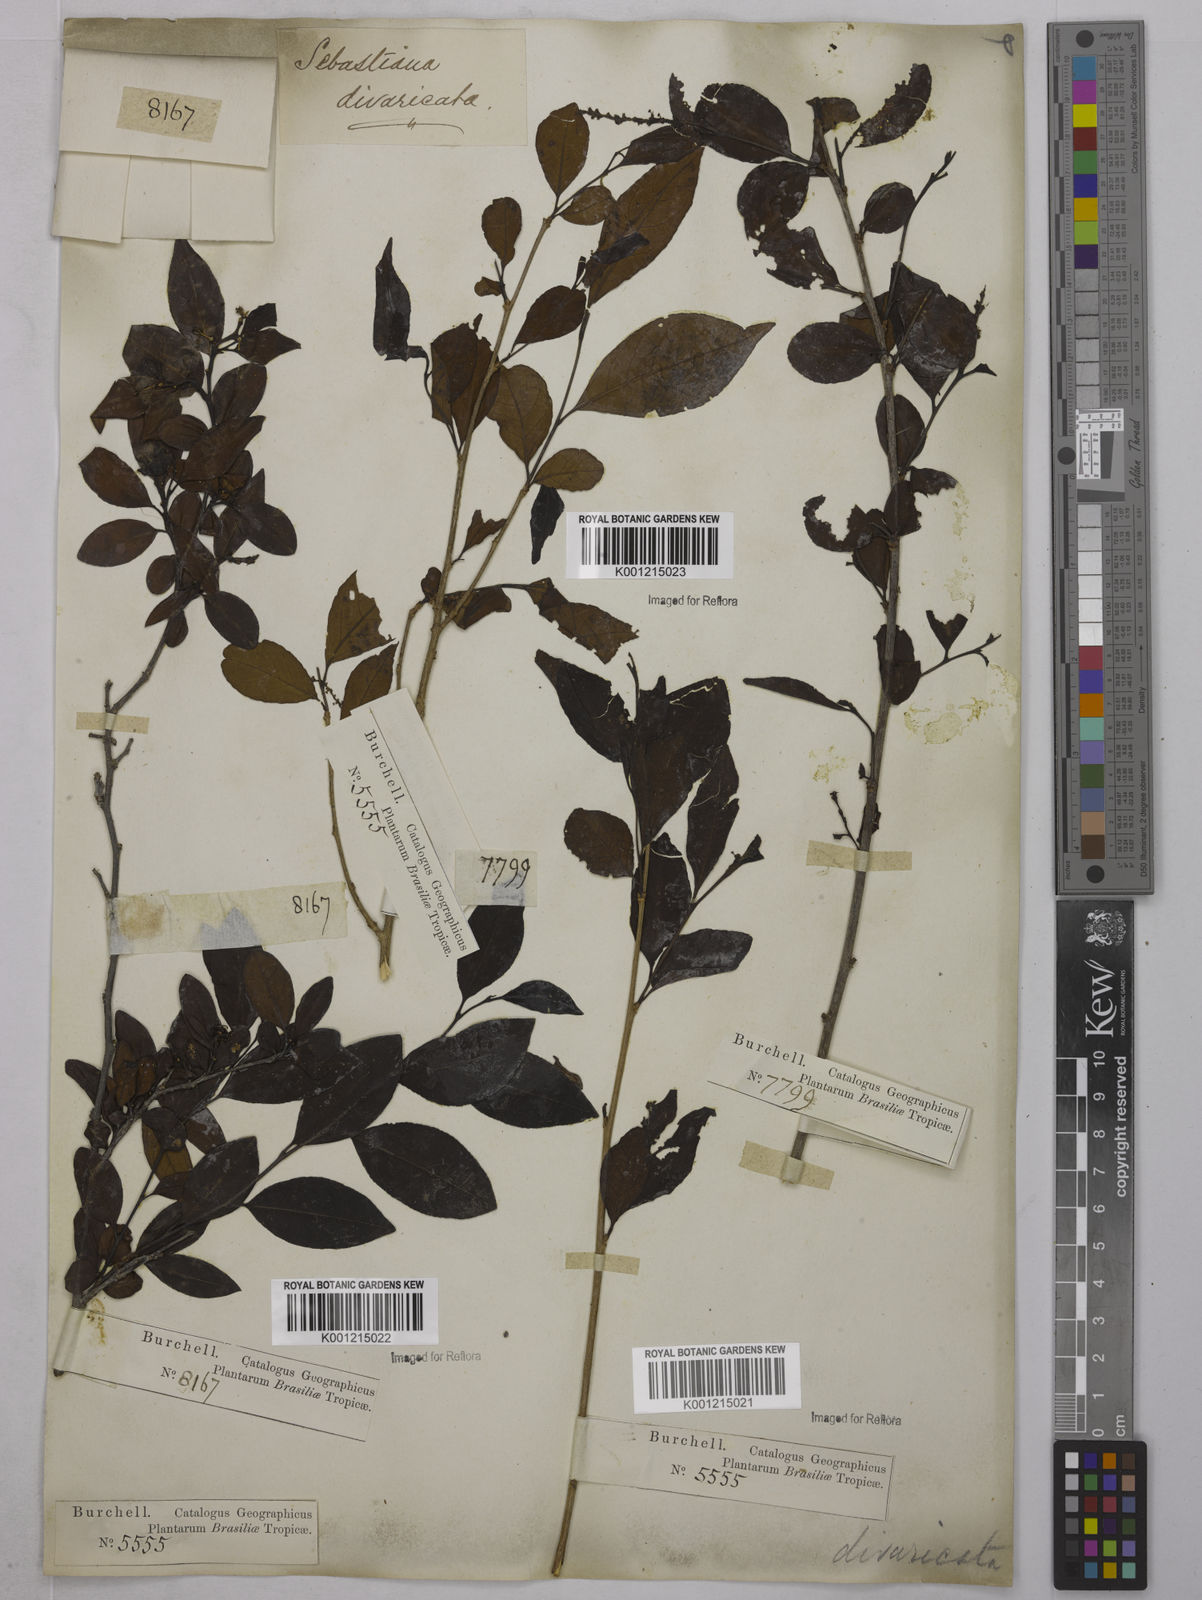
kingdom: Plantae
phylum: Tracheophyta
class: Magnoliopsida
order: Malpighiales
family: Euphorbiaceae
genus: Sebastiania
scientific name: Sebastiania brasiliensis
